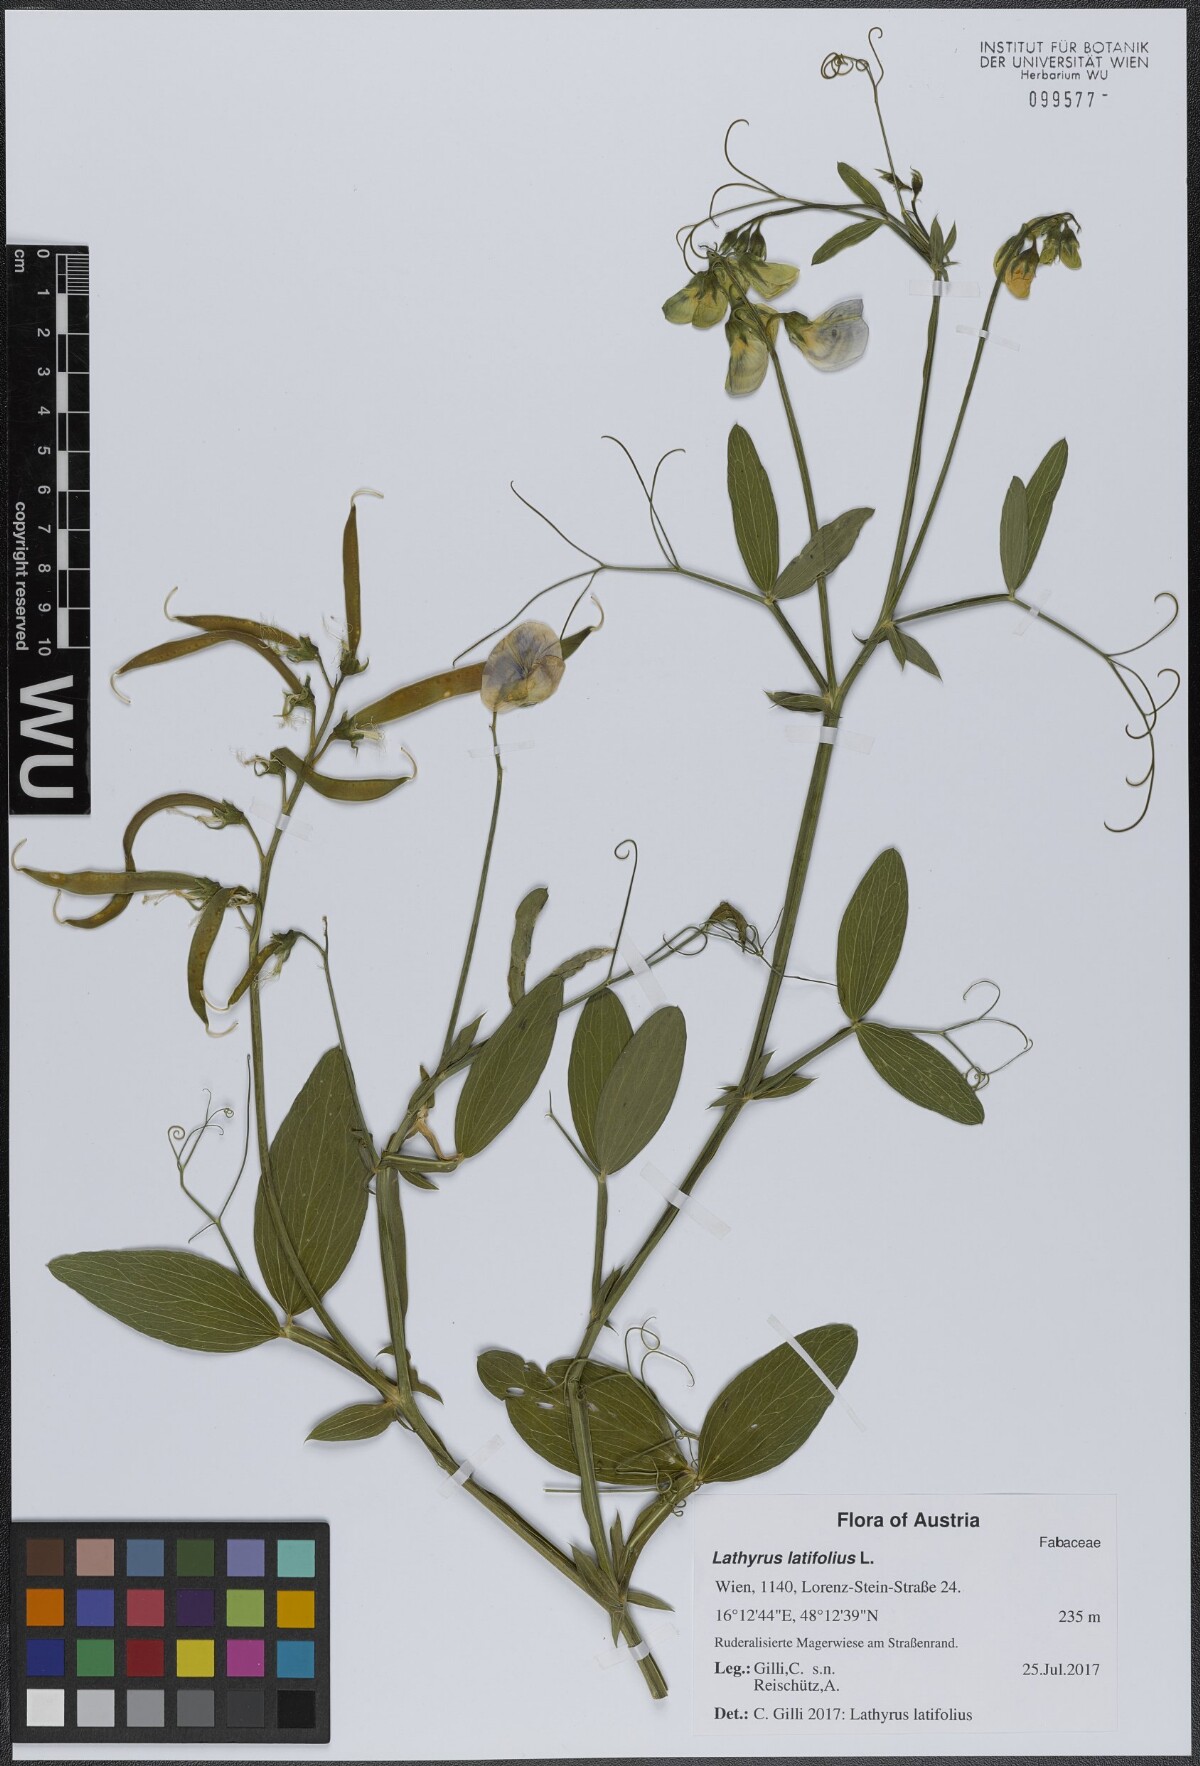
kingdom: Plantae
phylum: Tracheophyta
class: Magnoliopsida
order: Fabales
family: Fabaceae
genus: Lathyrus
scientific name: Lathyrus latifolius
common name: Perennial pea
